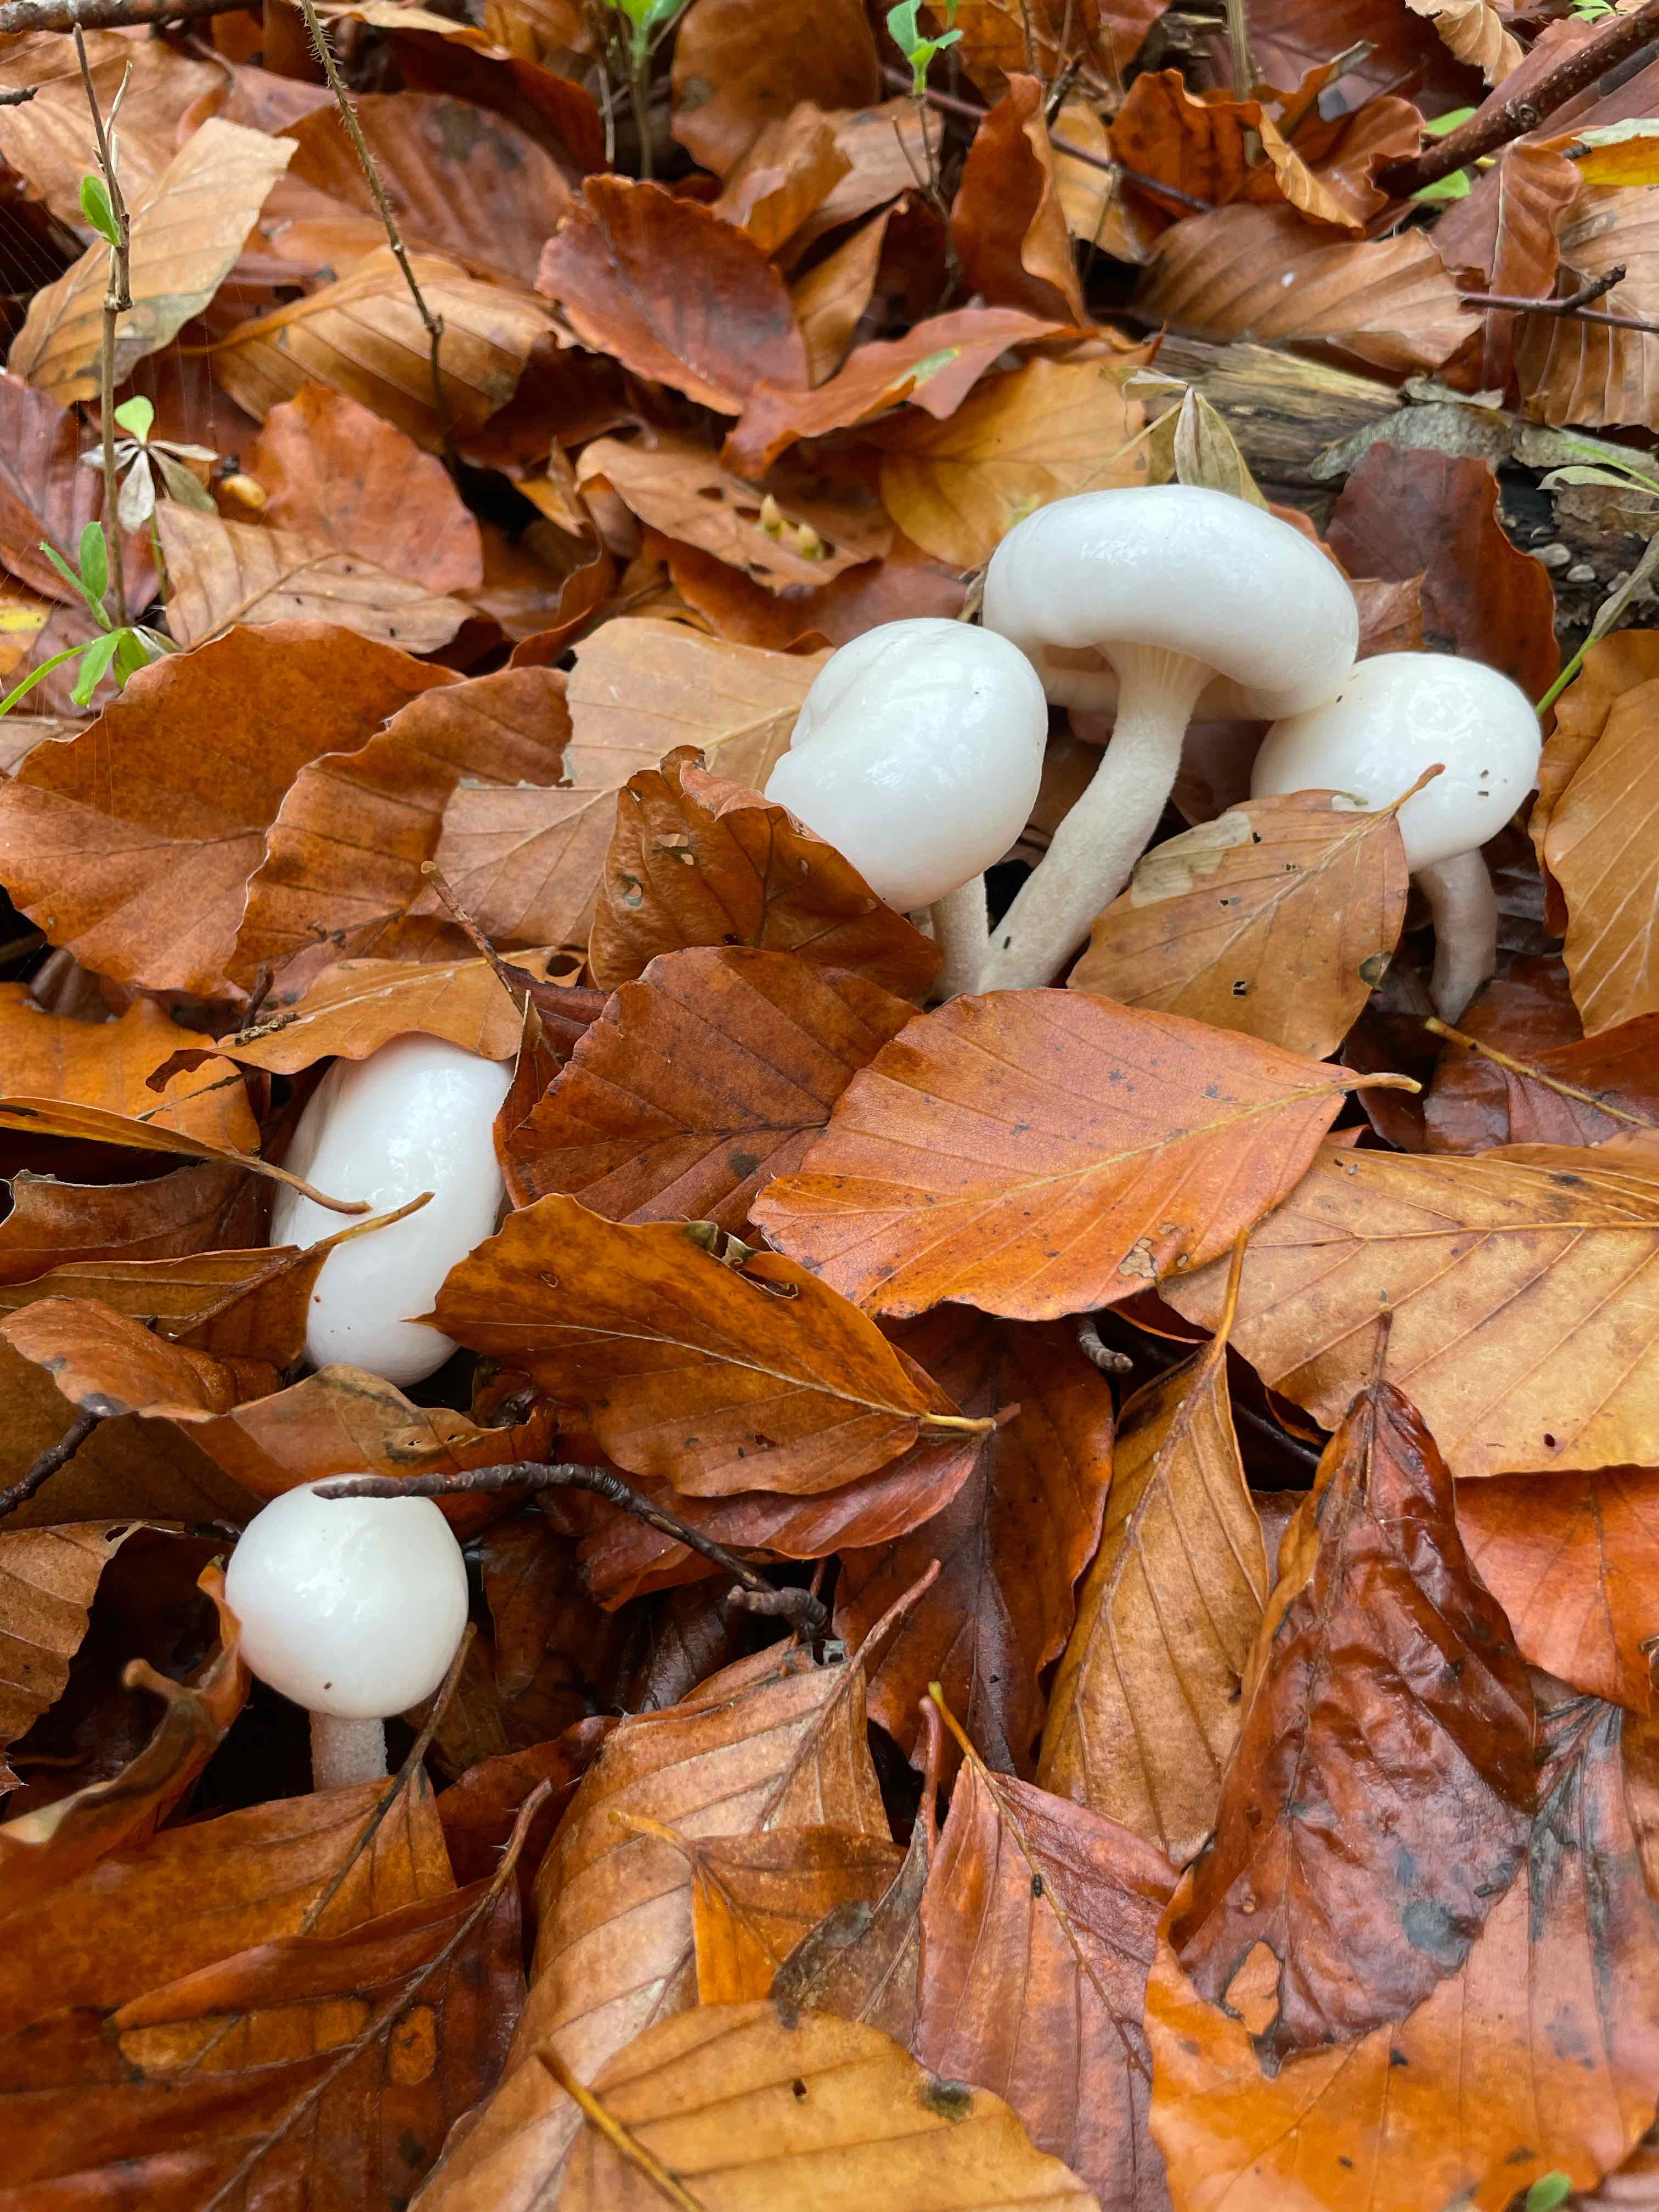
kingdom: Fungi
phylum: Basidiomycota
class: Agaricomycetes
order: Agaricales
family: Hygrophoraceae
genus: Hygrophorus
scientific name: Hygrophorus
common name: sneglehat
